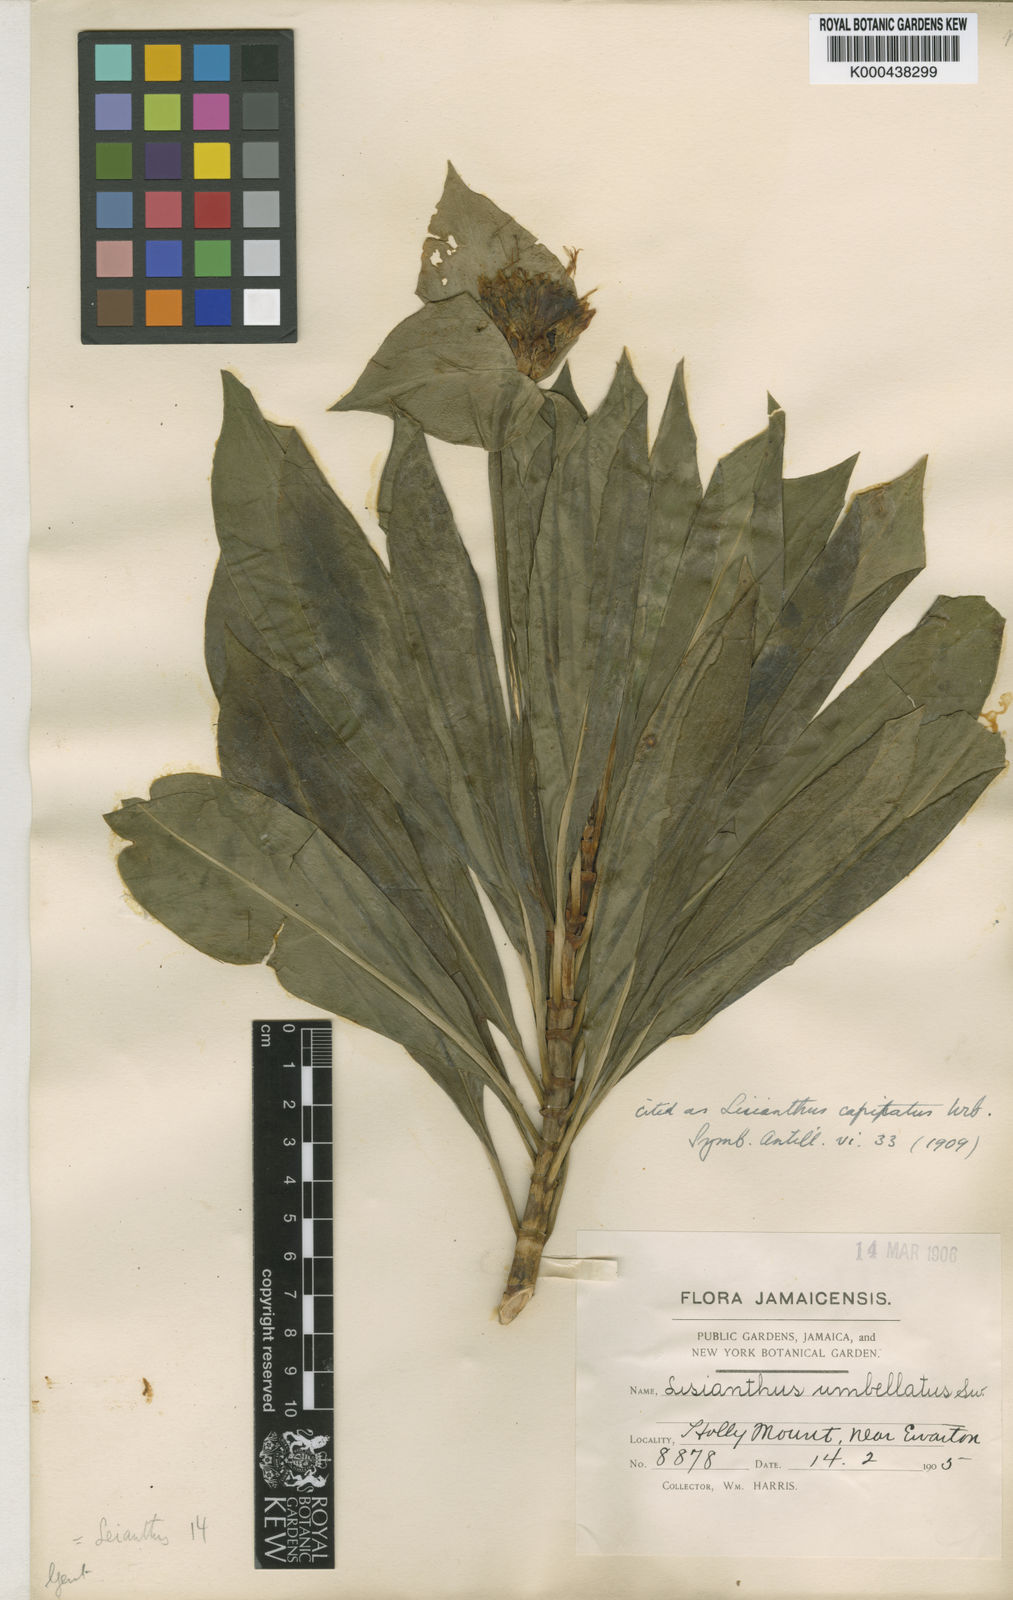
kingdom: Plantae
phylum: Tracheophyta
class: Magnoliopsida
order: Gentianales
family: Gentianaceae
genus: Lisianthius
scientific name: Lisianthius capitatus
